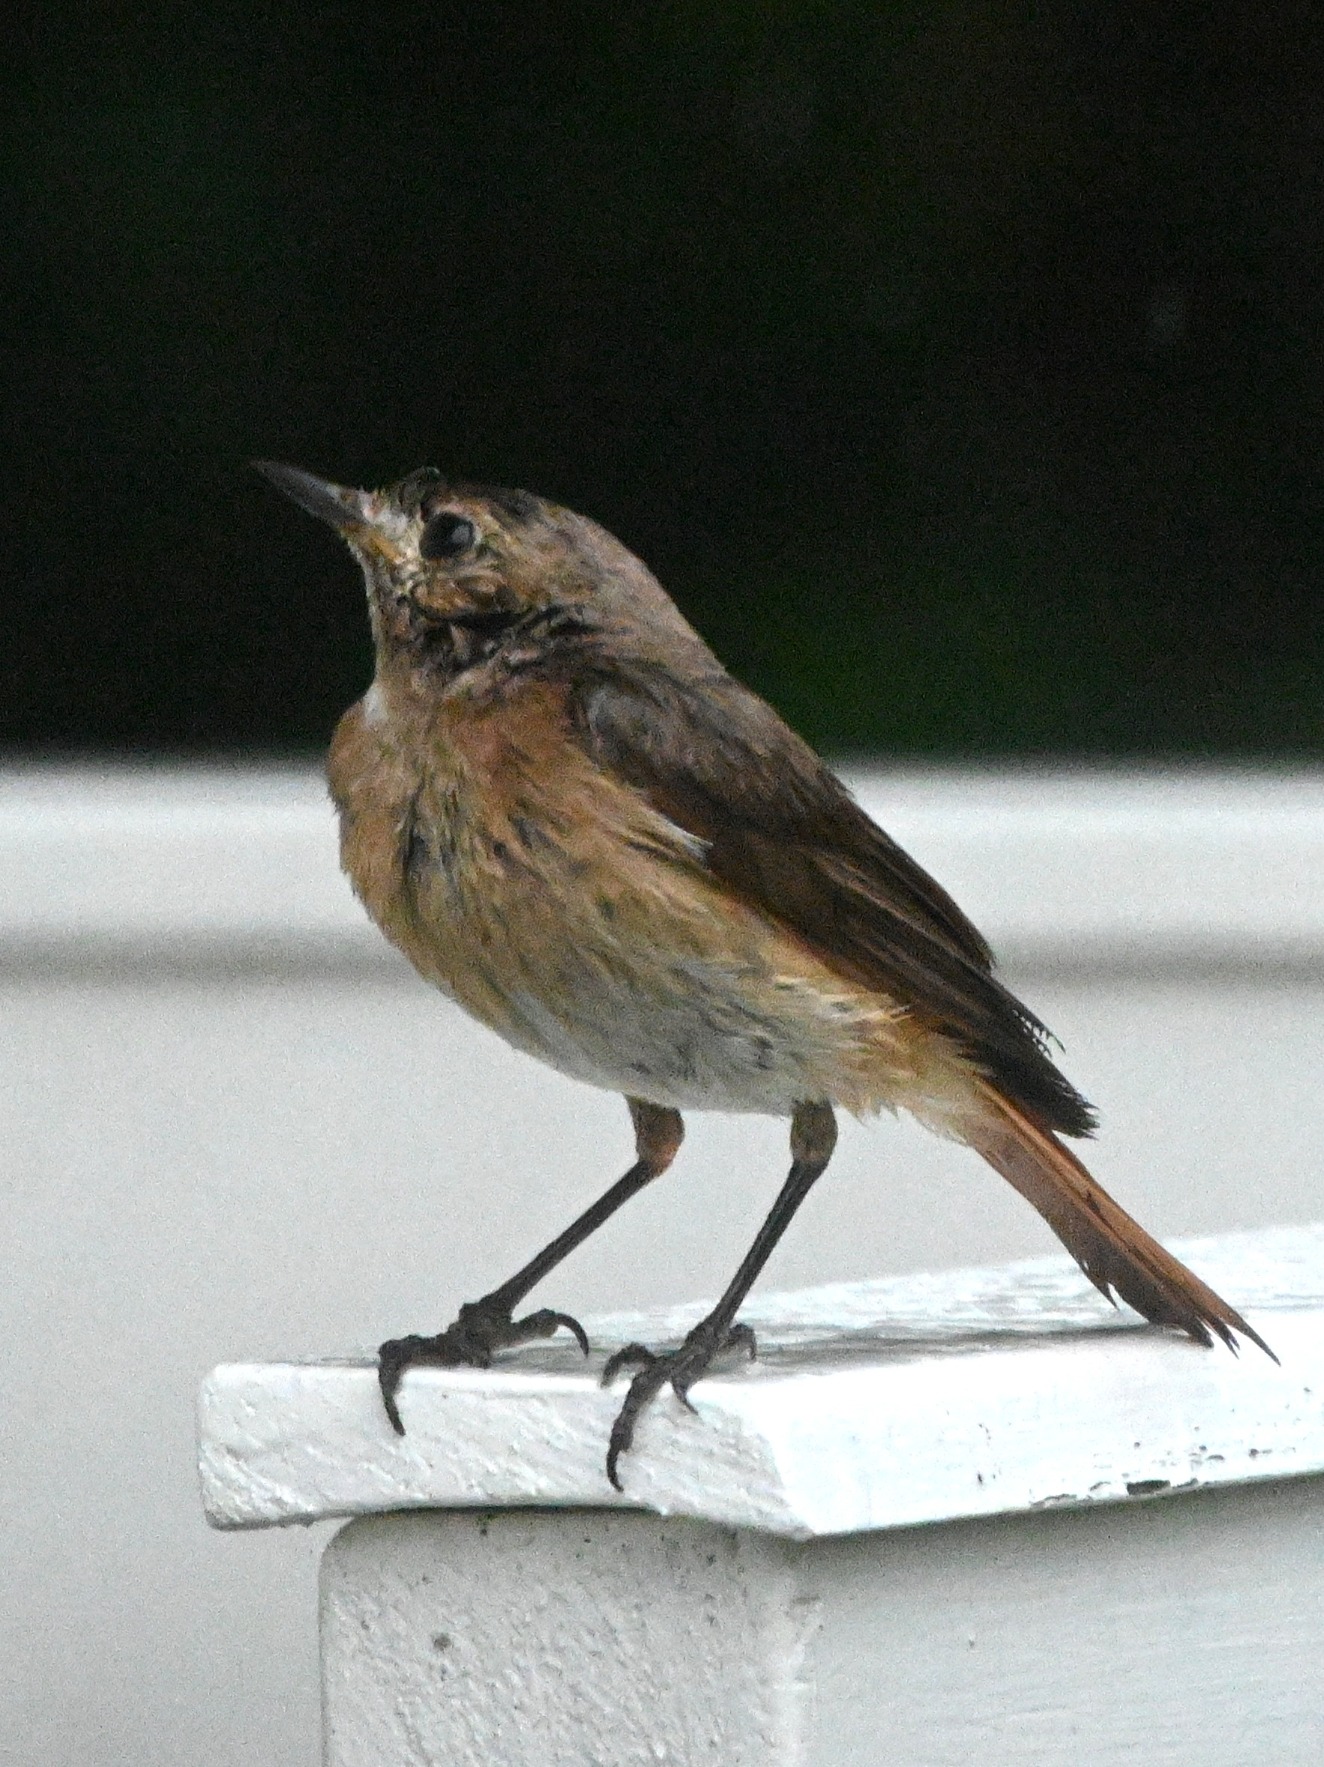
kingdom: Animalia
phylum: Chordata
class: Aves
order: Passeriformes
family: Muscicapidae
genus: Phoenicurus
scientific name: Phoenicurus phoenicurus
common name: Rødstjert
